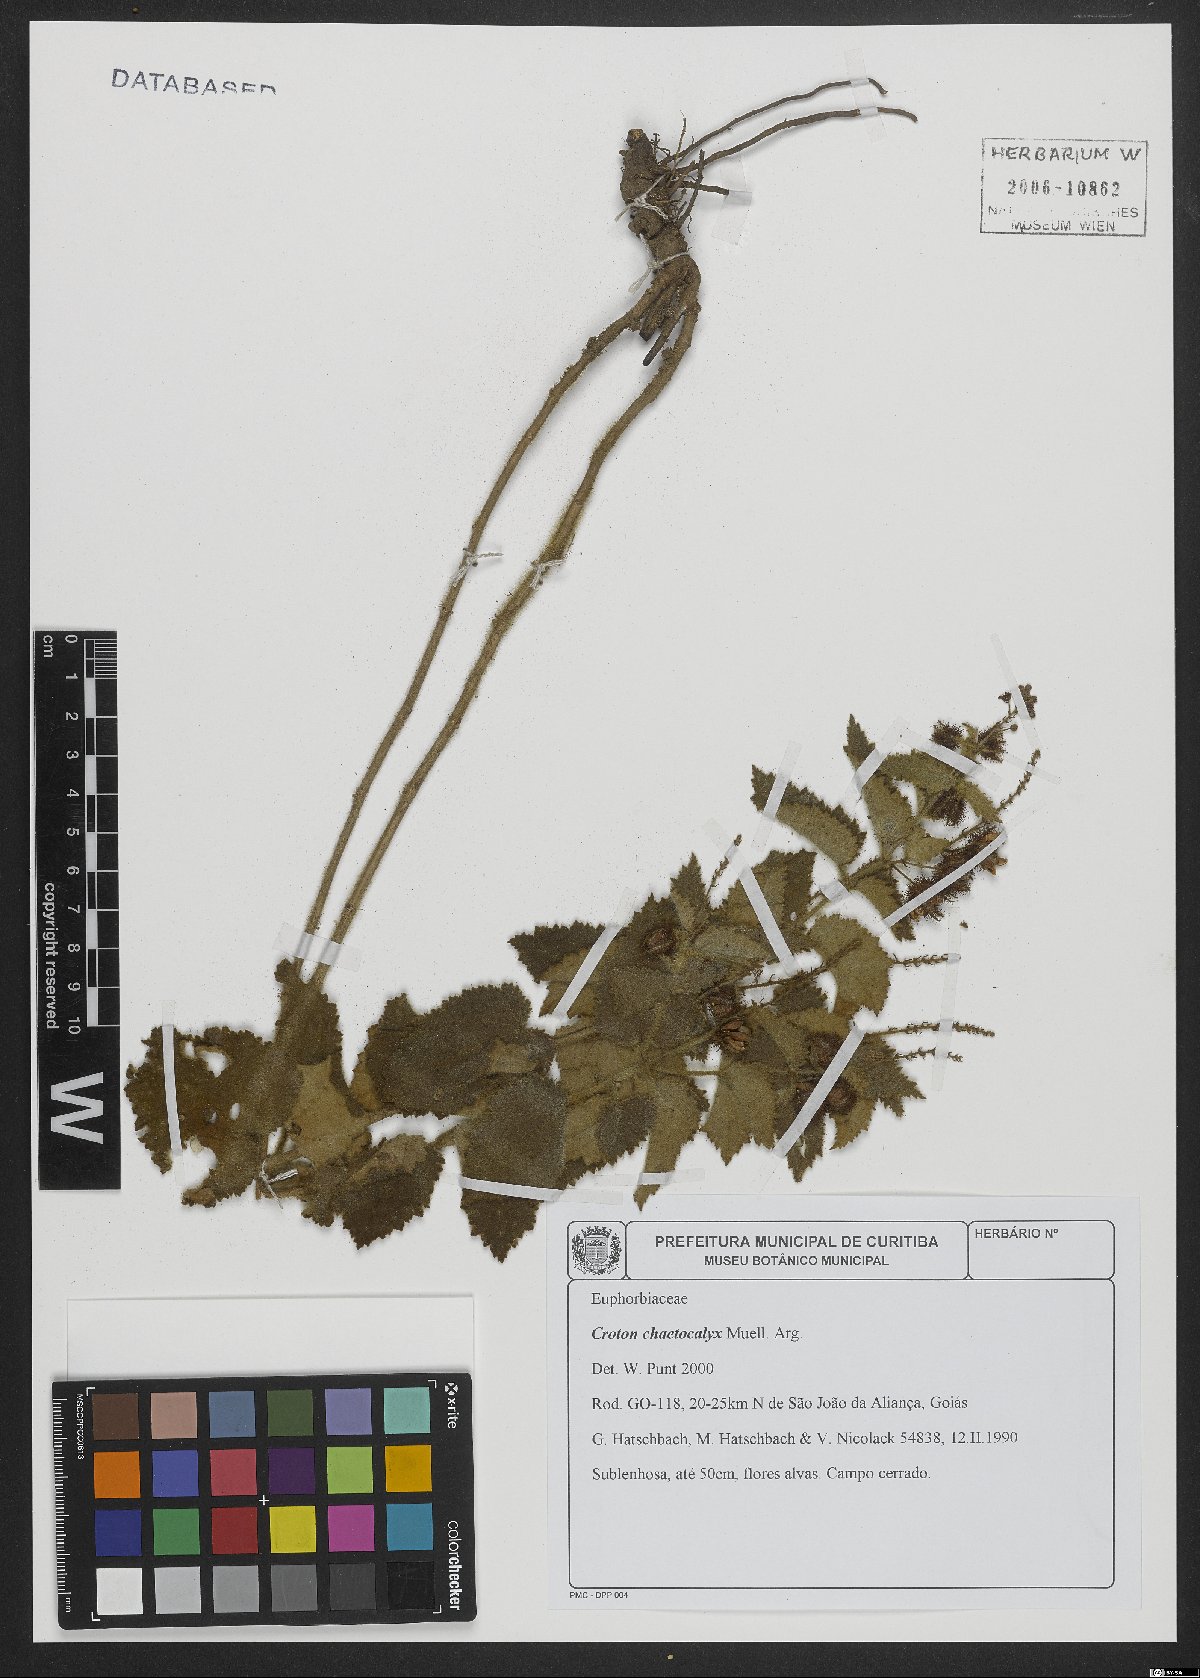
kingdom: Plantae
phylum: Tracheophyta
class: Magnoliopsida
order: Malpighiales
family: Euphorbiaceae
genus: Croton
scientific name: Croton catariae
